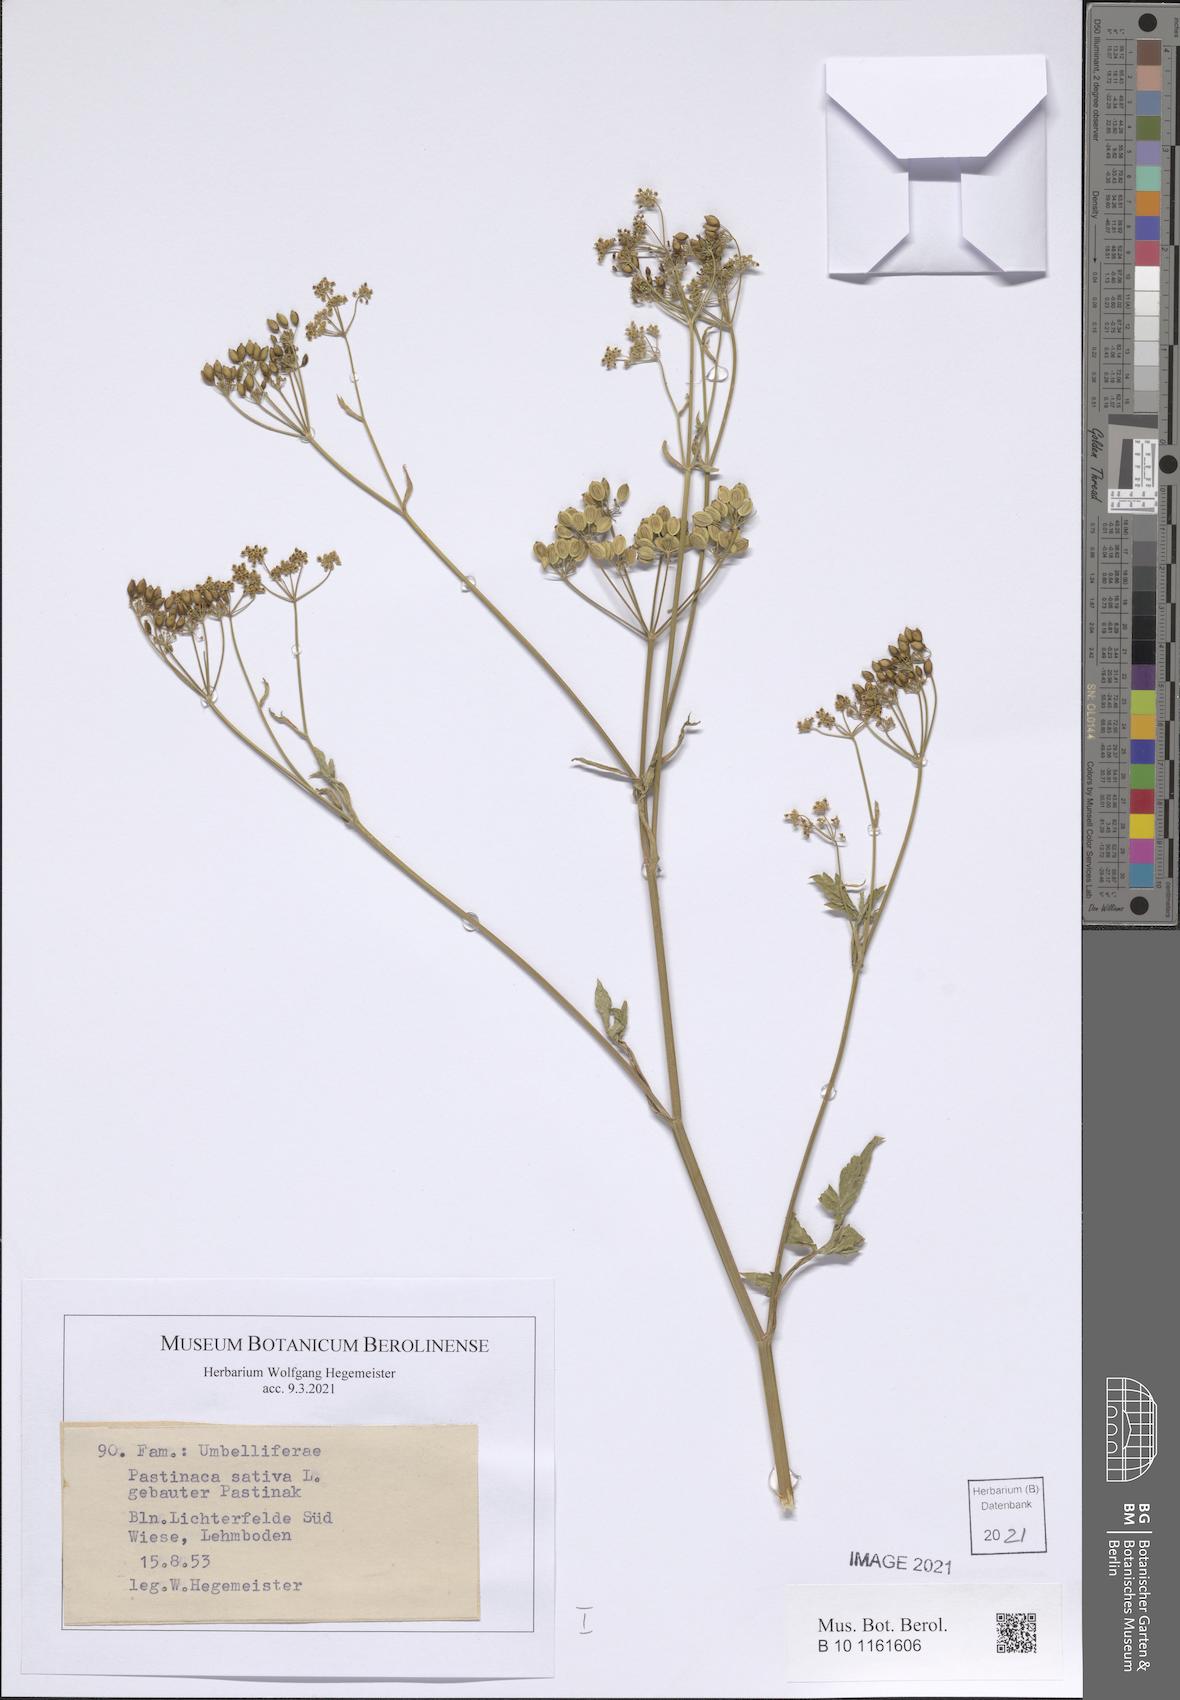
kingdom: Plantae
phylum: Tracheophyta
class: Magnoliopsida
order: Apiales
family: Apiaceae
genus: Pastinaca
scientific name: Pastinaca sativa
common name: Wild parsnip
